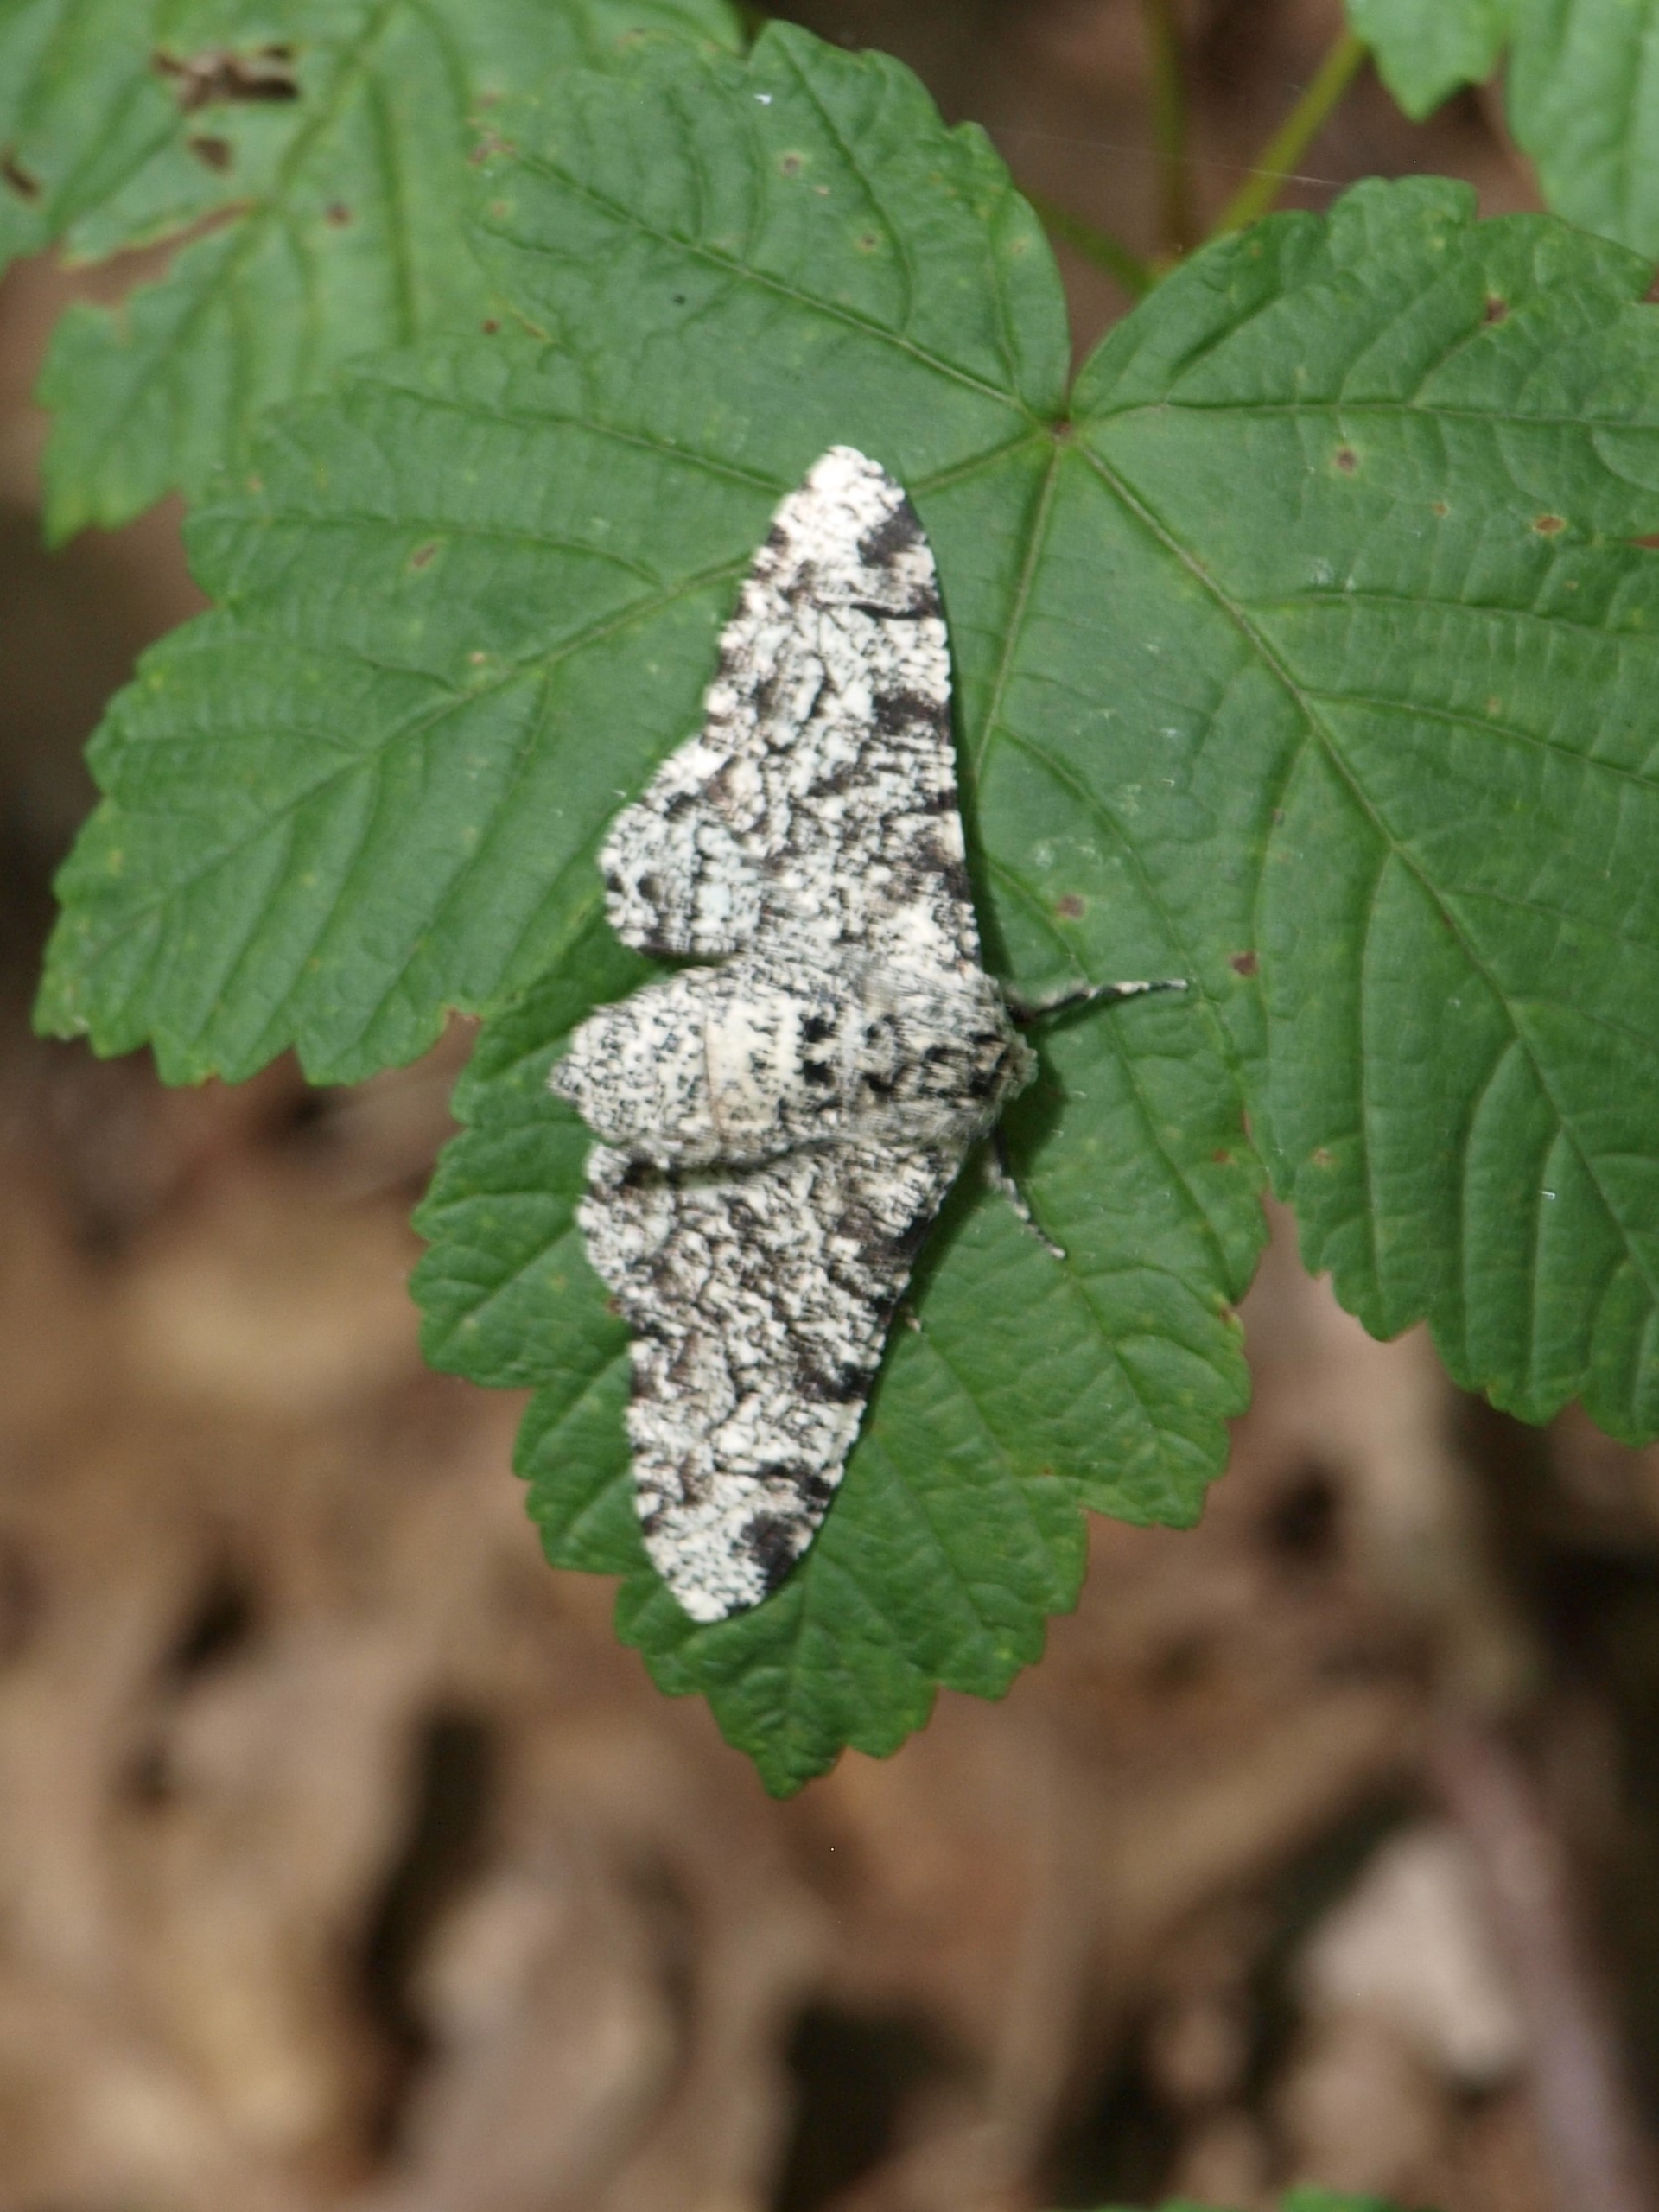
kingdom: Animalia
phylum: Arthropoda
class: Insecta
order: Lepidoptera
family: Geometridae
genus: Biston
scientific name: Biston betularia
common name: Birkemåler
